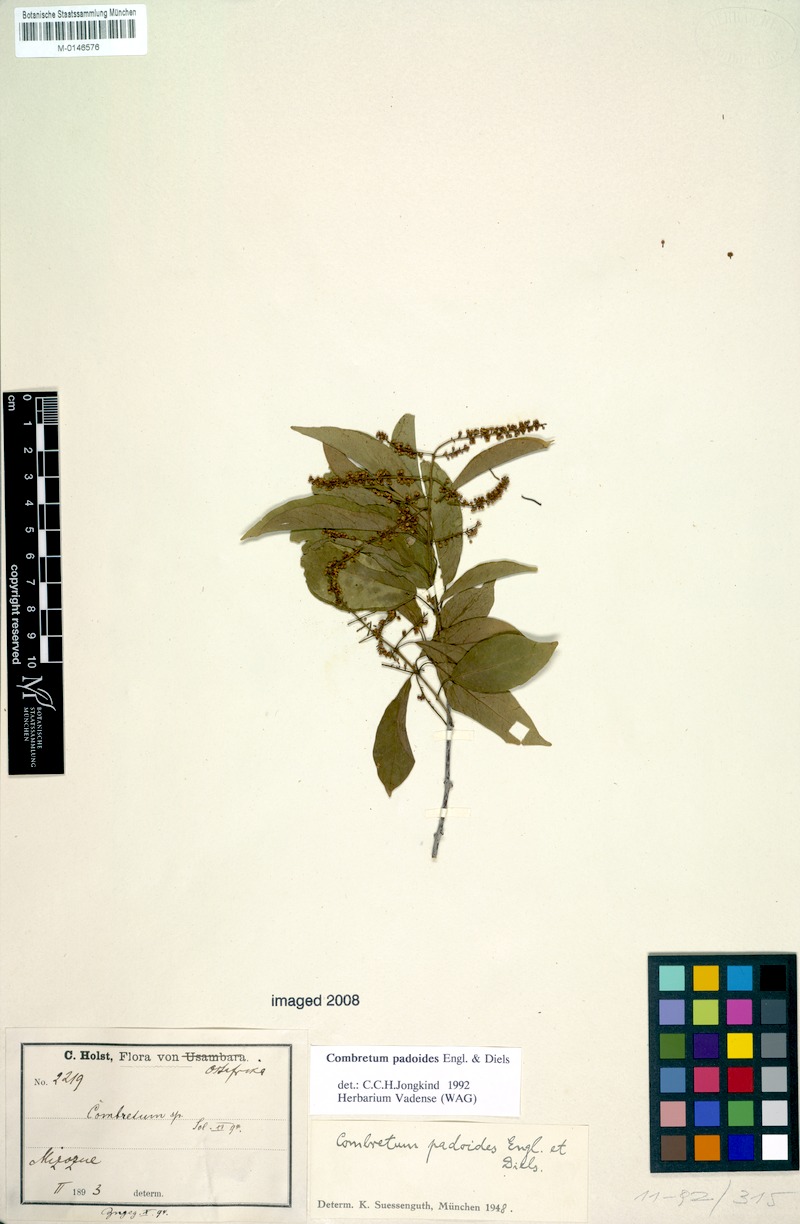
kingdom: Plantae
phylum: Tracheophyta
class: Magnoliopsida
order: Myrtales
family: Combretaceae
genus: Combretum
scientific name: Combretum padoides
